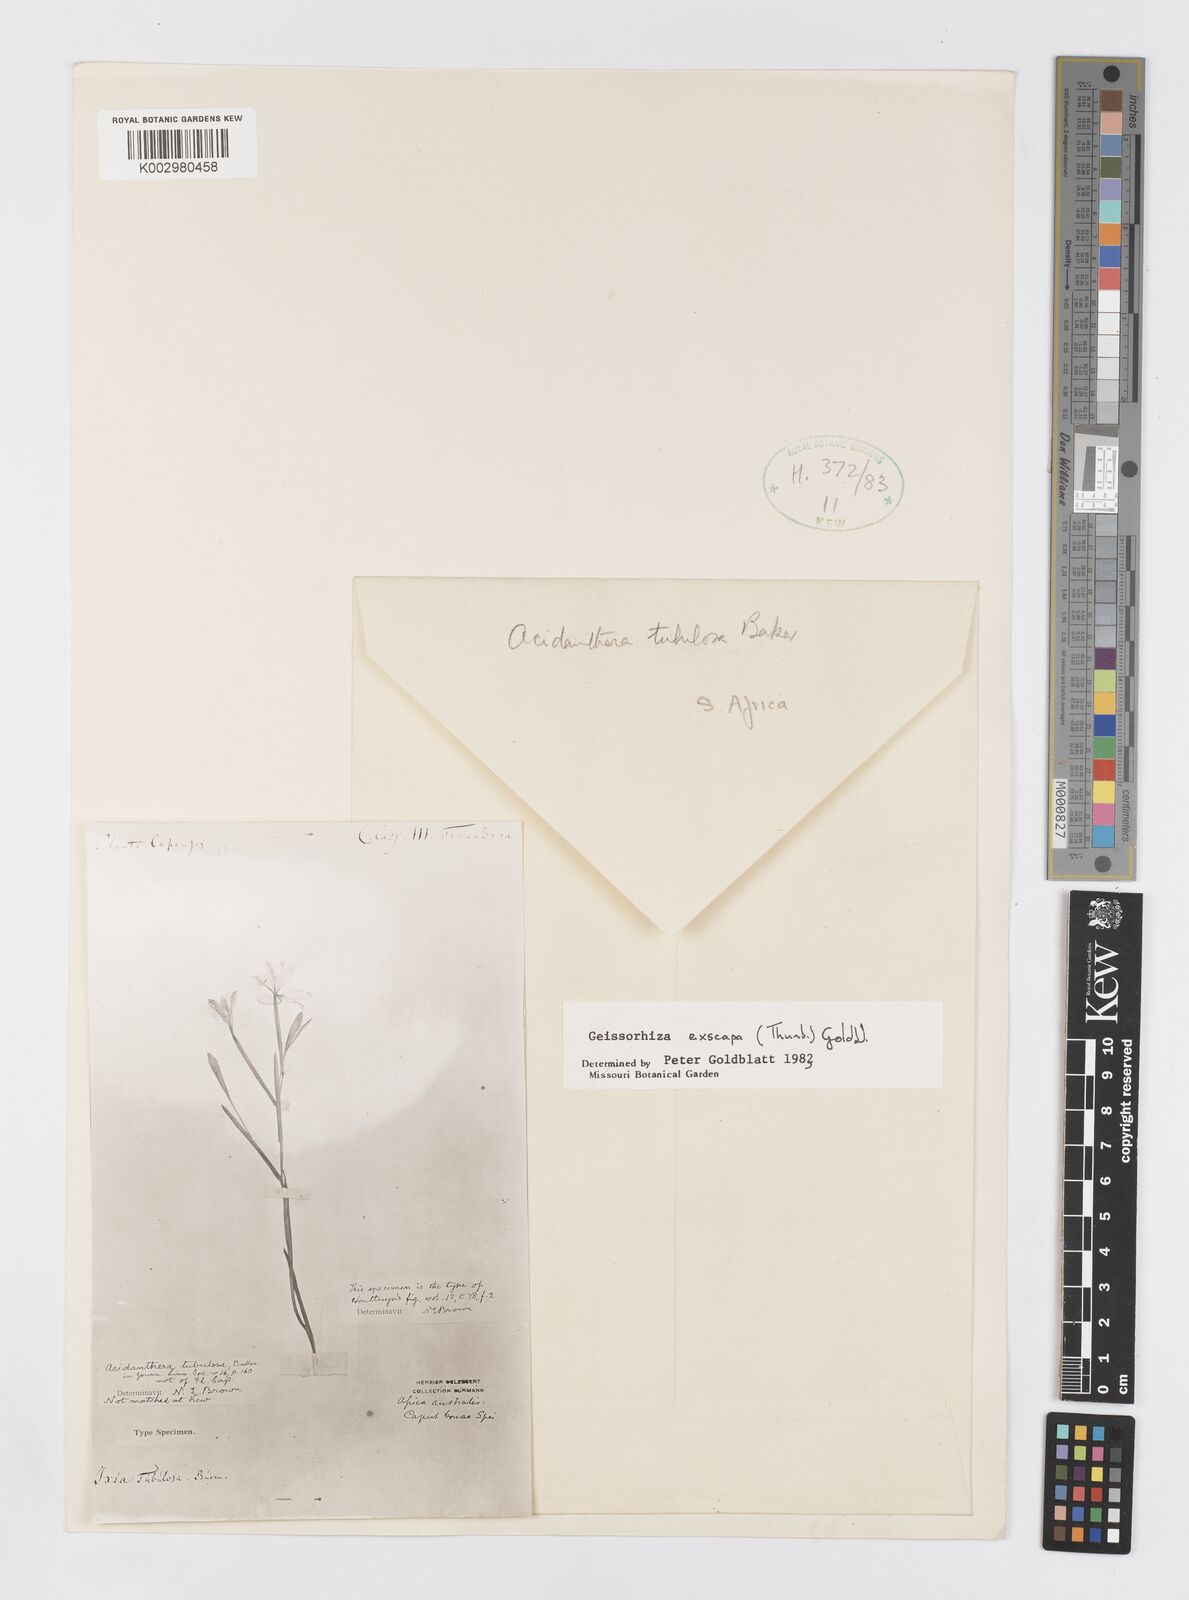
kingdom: Plantae
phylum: Tracheophyta
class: Liliopsida
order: Asparagales
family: Iridaceae
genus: Geissorhiza
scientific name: Geissorhiza exscapa
